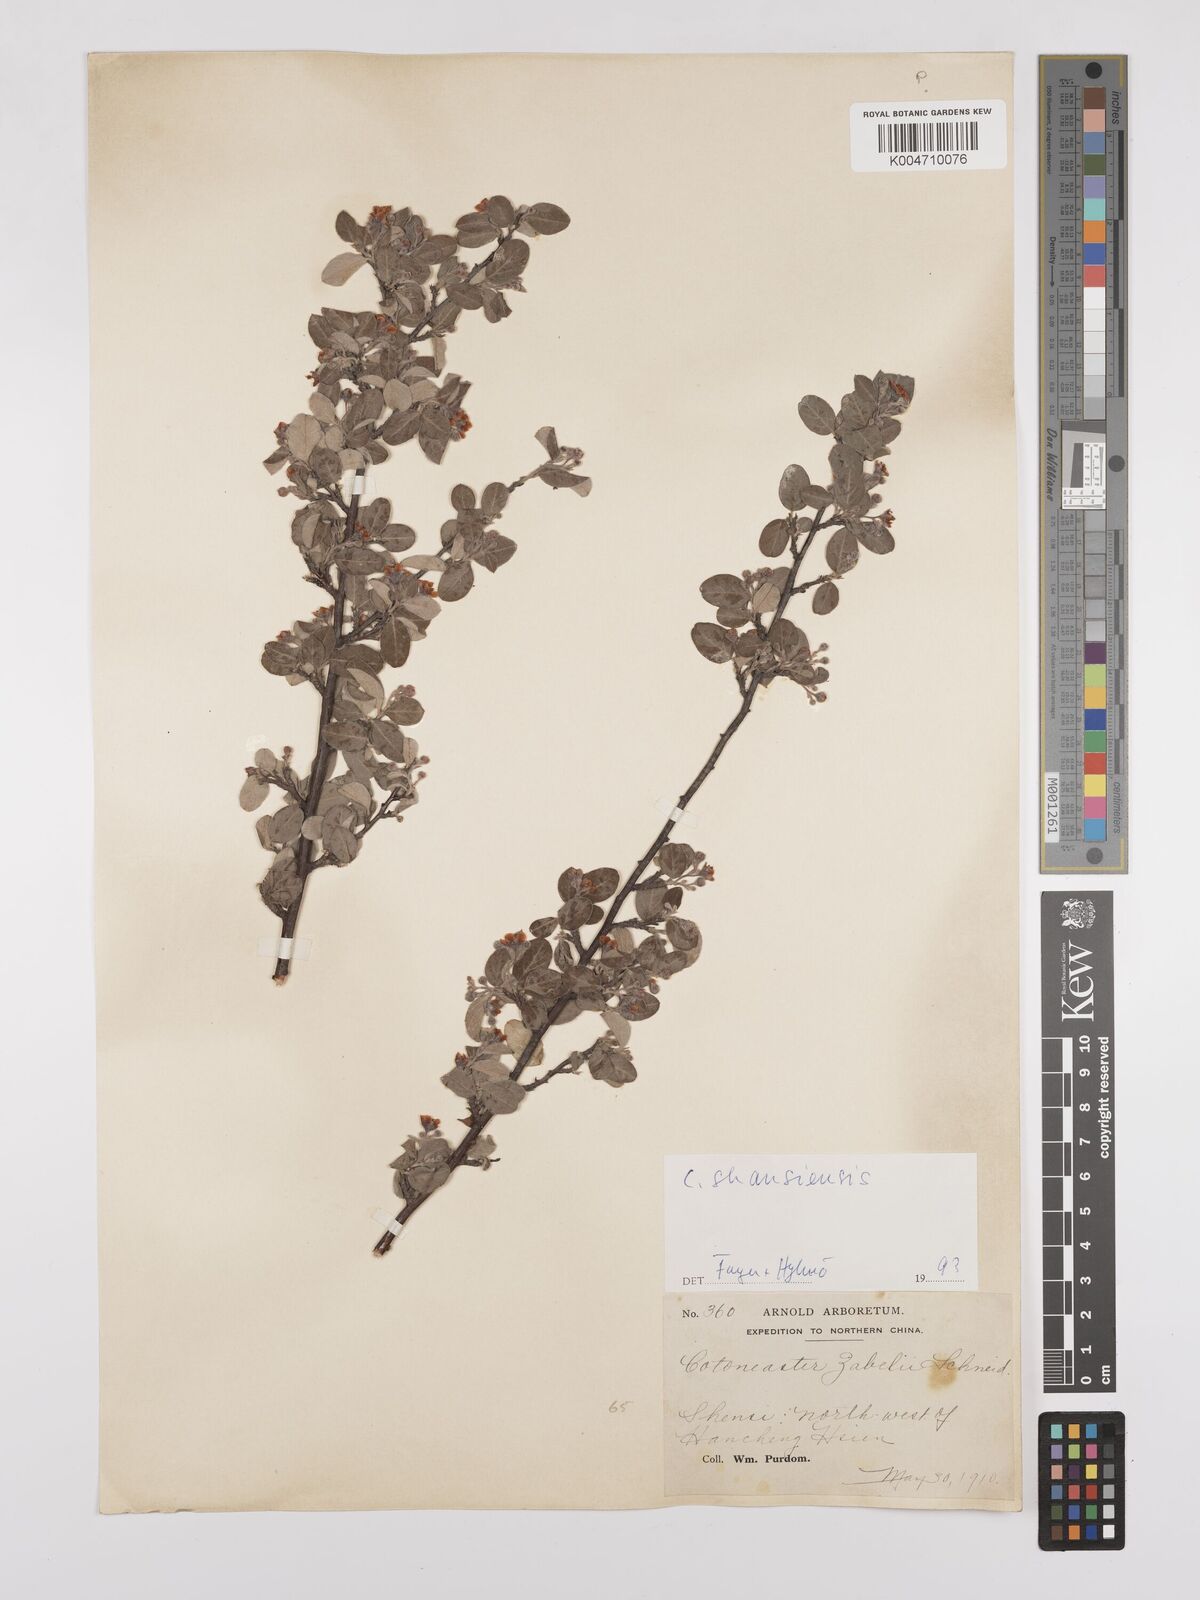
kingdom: Plantae
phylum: Tracheophyta
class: Magnoliopsida
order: Rosales
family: Rosaceae
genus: Cotoneaster
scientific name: Cotoneaster zabelii
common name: Cherryred cotoneaster
